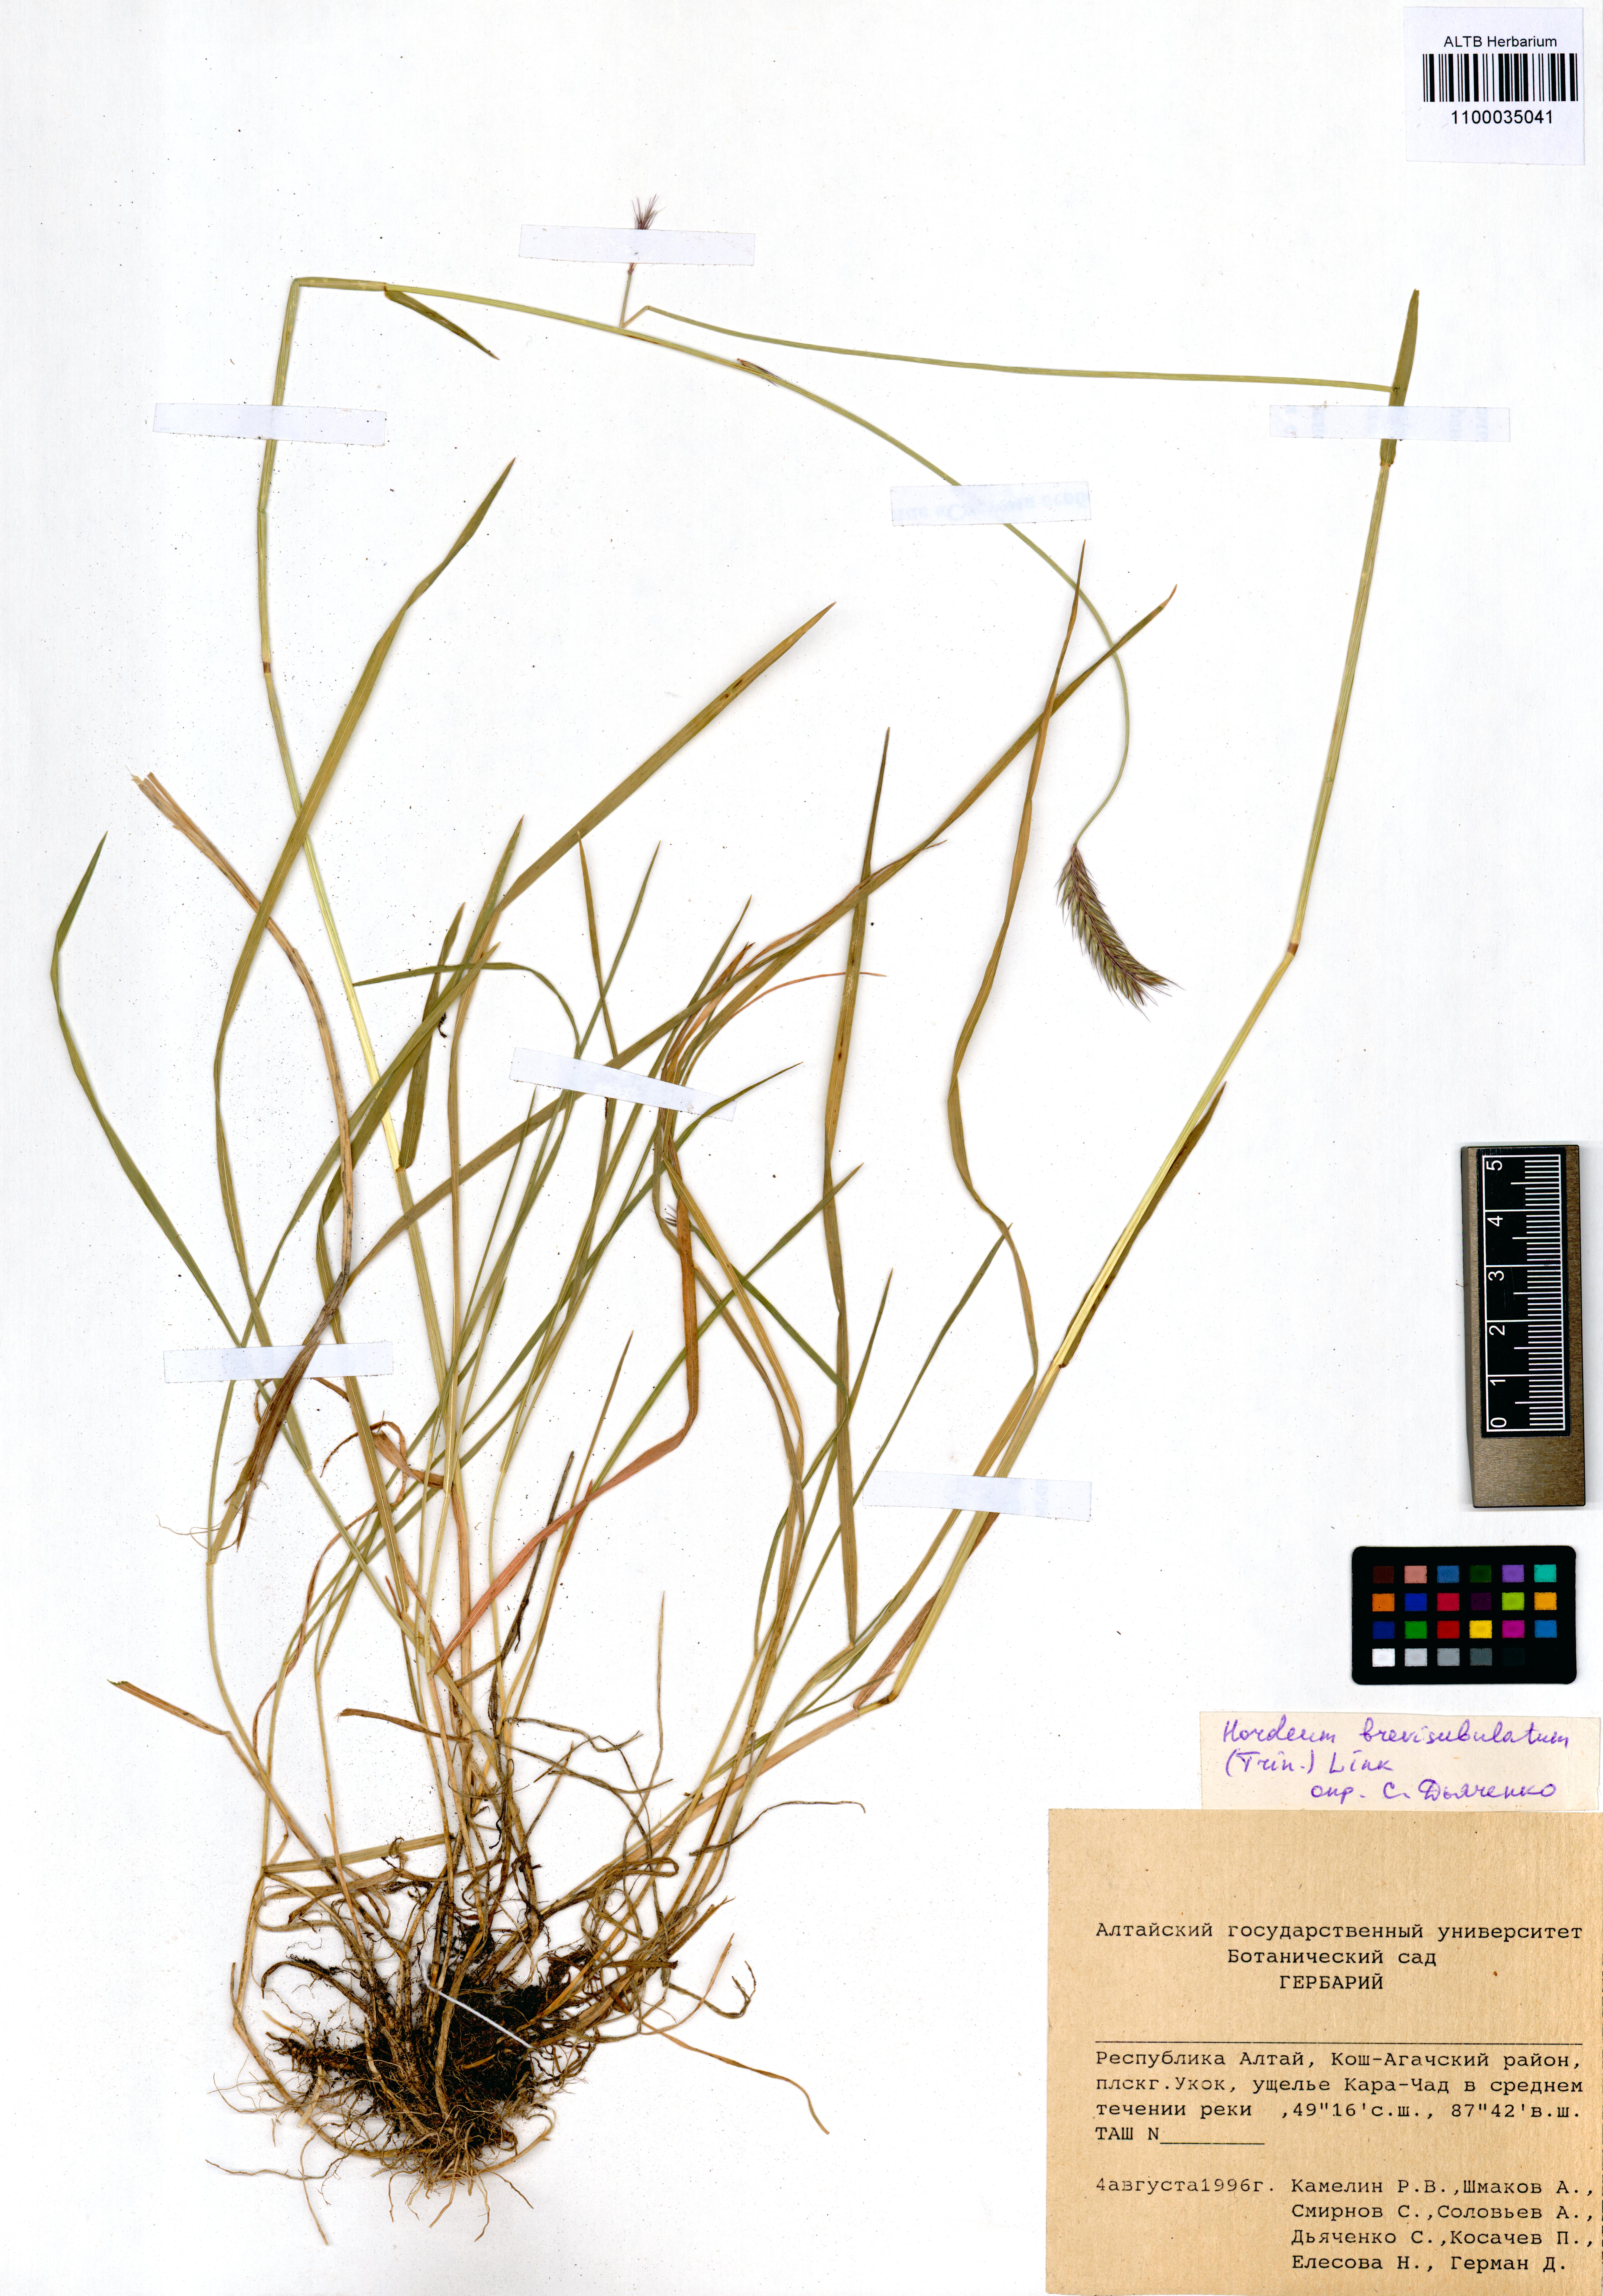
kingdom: Plantae
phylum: Tracheophyta
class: Liliopsida
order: Poales
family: Poaceae
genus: Hordeum
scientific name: Hordeum brevisubulatum
